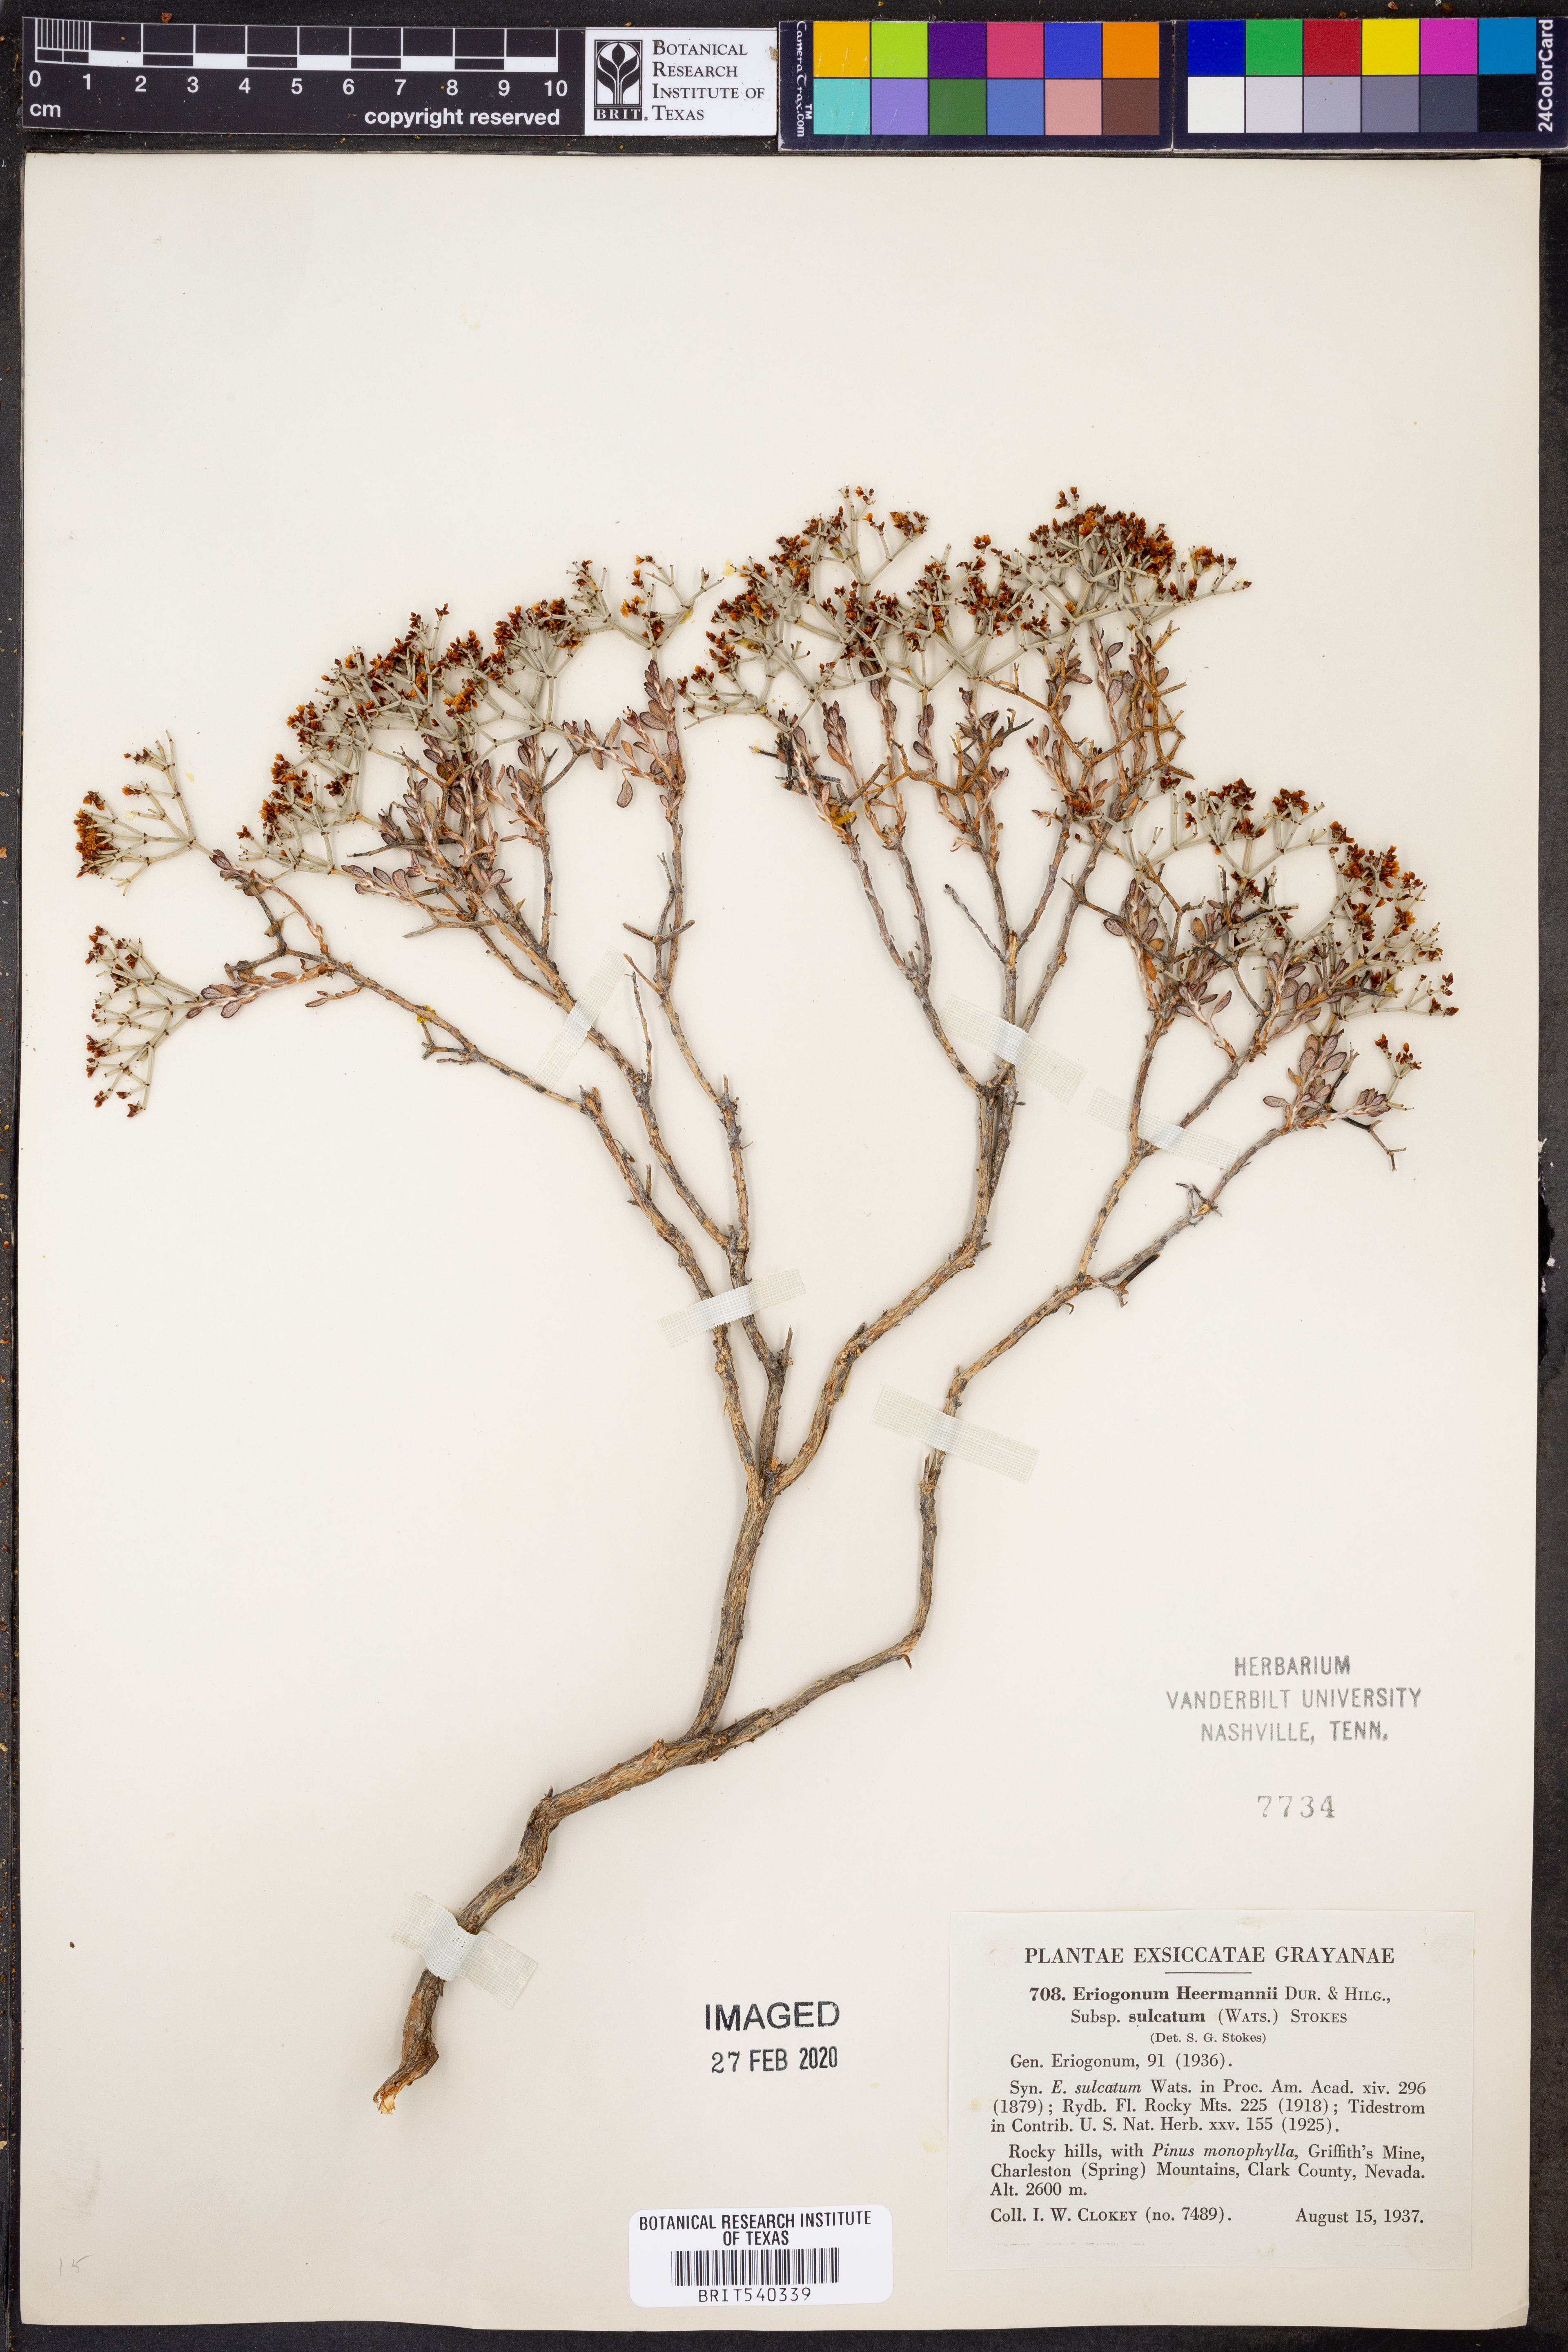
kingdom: Plantae
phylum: Tracheophyta
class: Magnoliopsida
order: Caryophyllales
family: Polygonaceae
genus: Eriogonum
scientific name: Eriogonum heermannii
